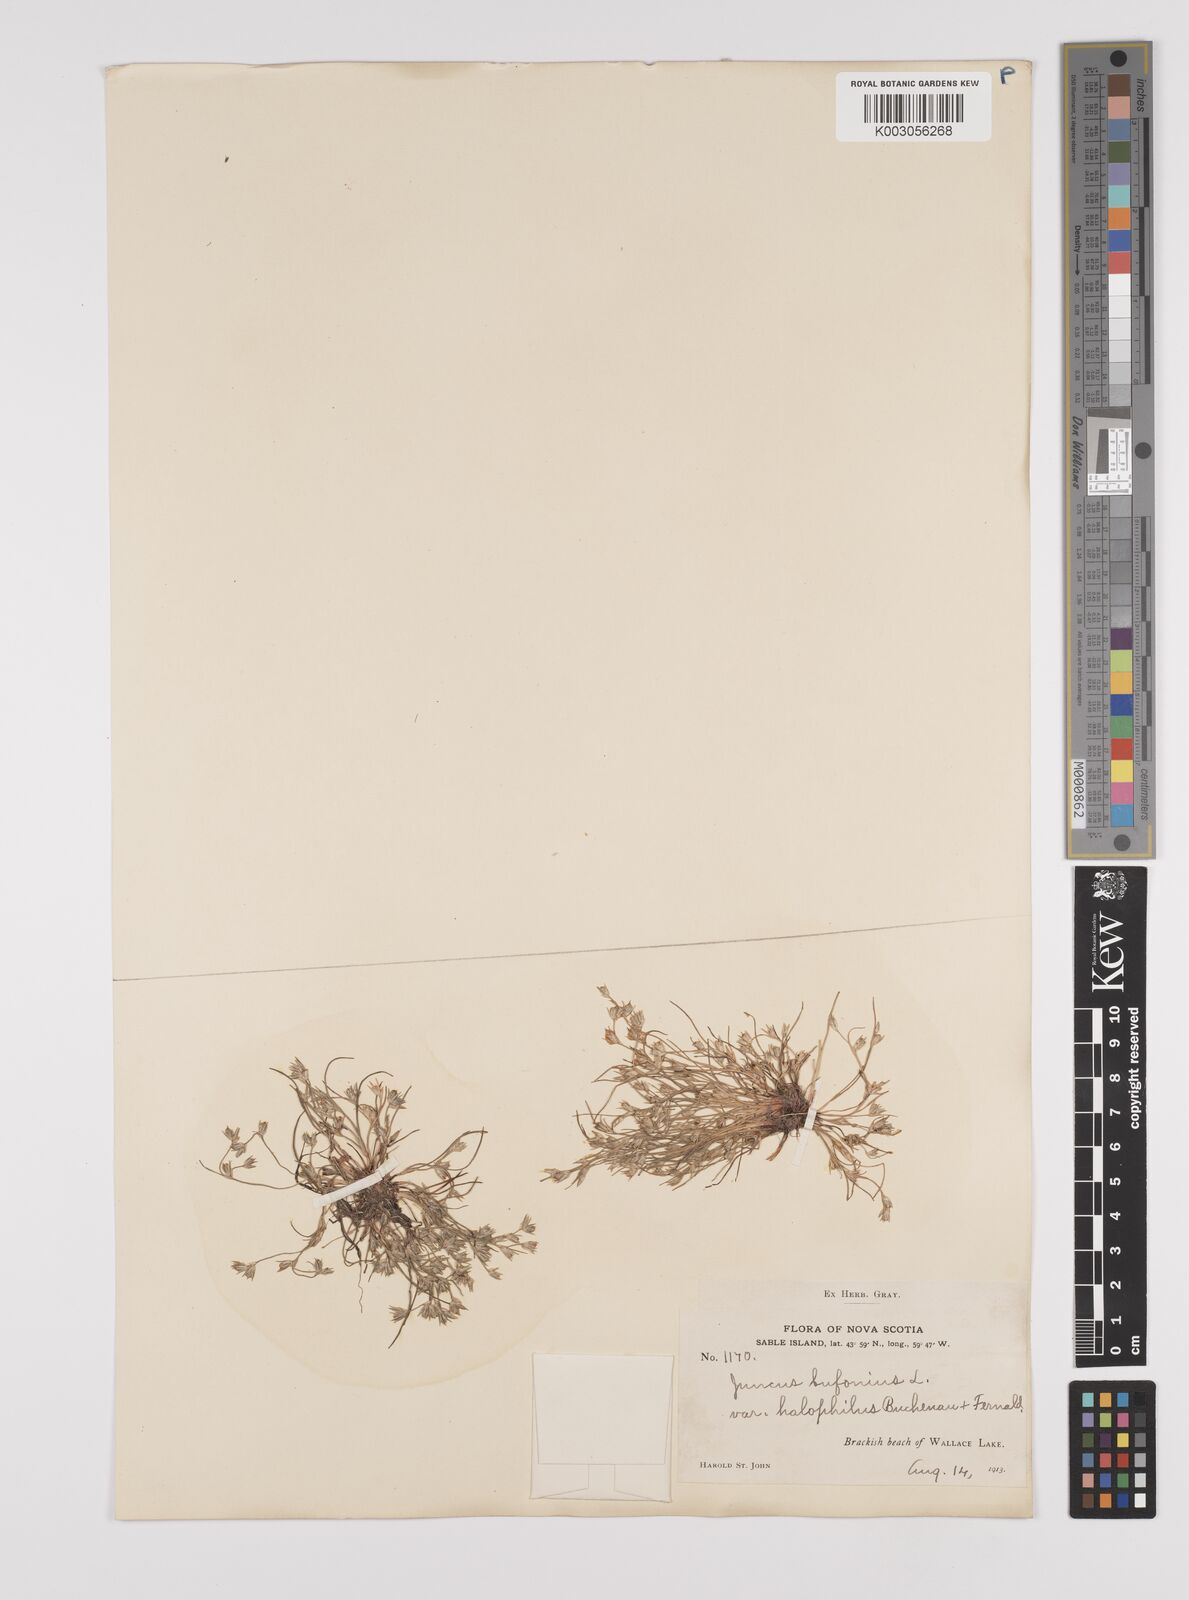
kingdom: Plantae
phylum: Tracheophyta
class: Liliopsida
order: Poales
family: Juncaceae
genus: Juncus
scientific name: Juncus ranarius
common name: Frog rush
